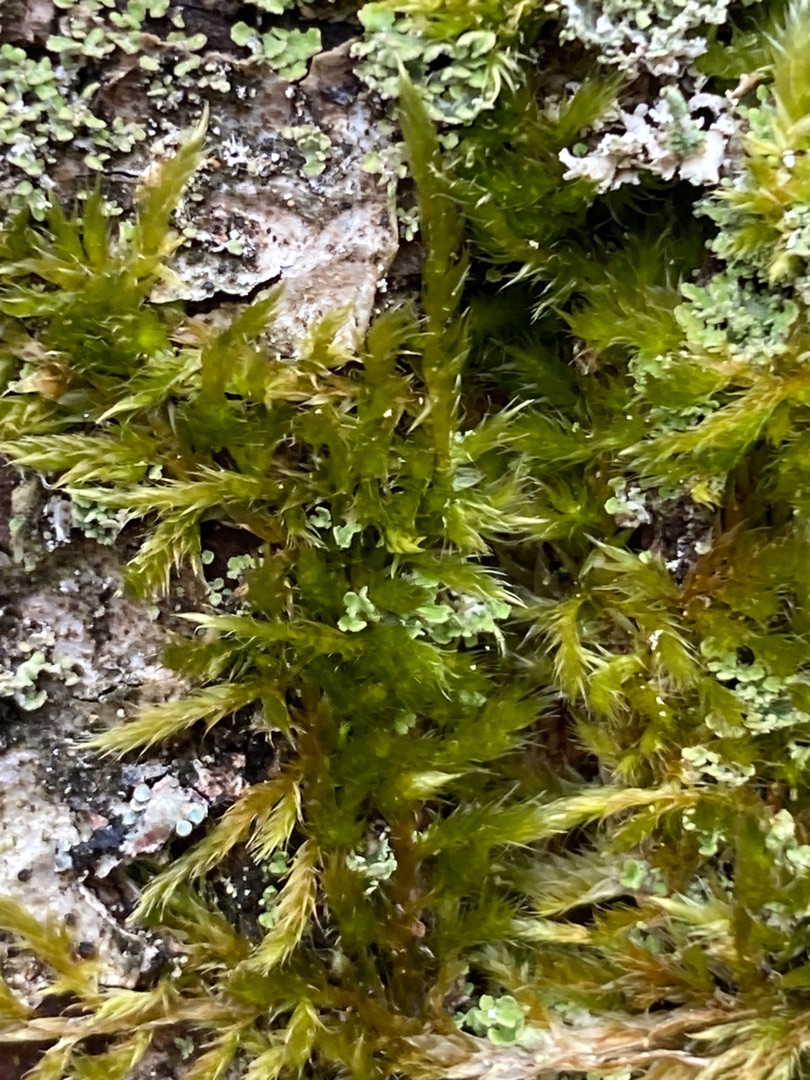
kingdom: Plantae
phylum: Bryophyta
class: Bryopsida
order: Hypnales
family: Hypnaceae
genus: Hypnum
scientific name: Hypnum
